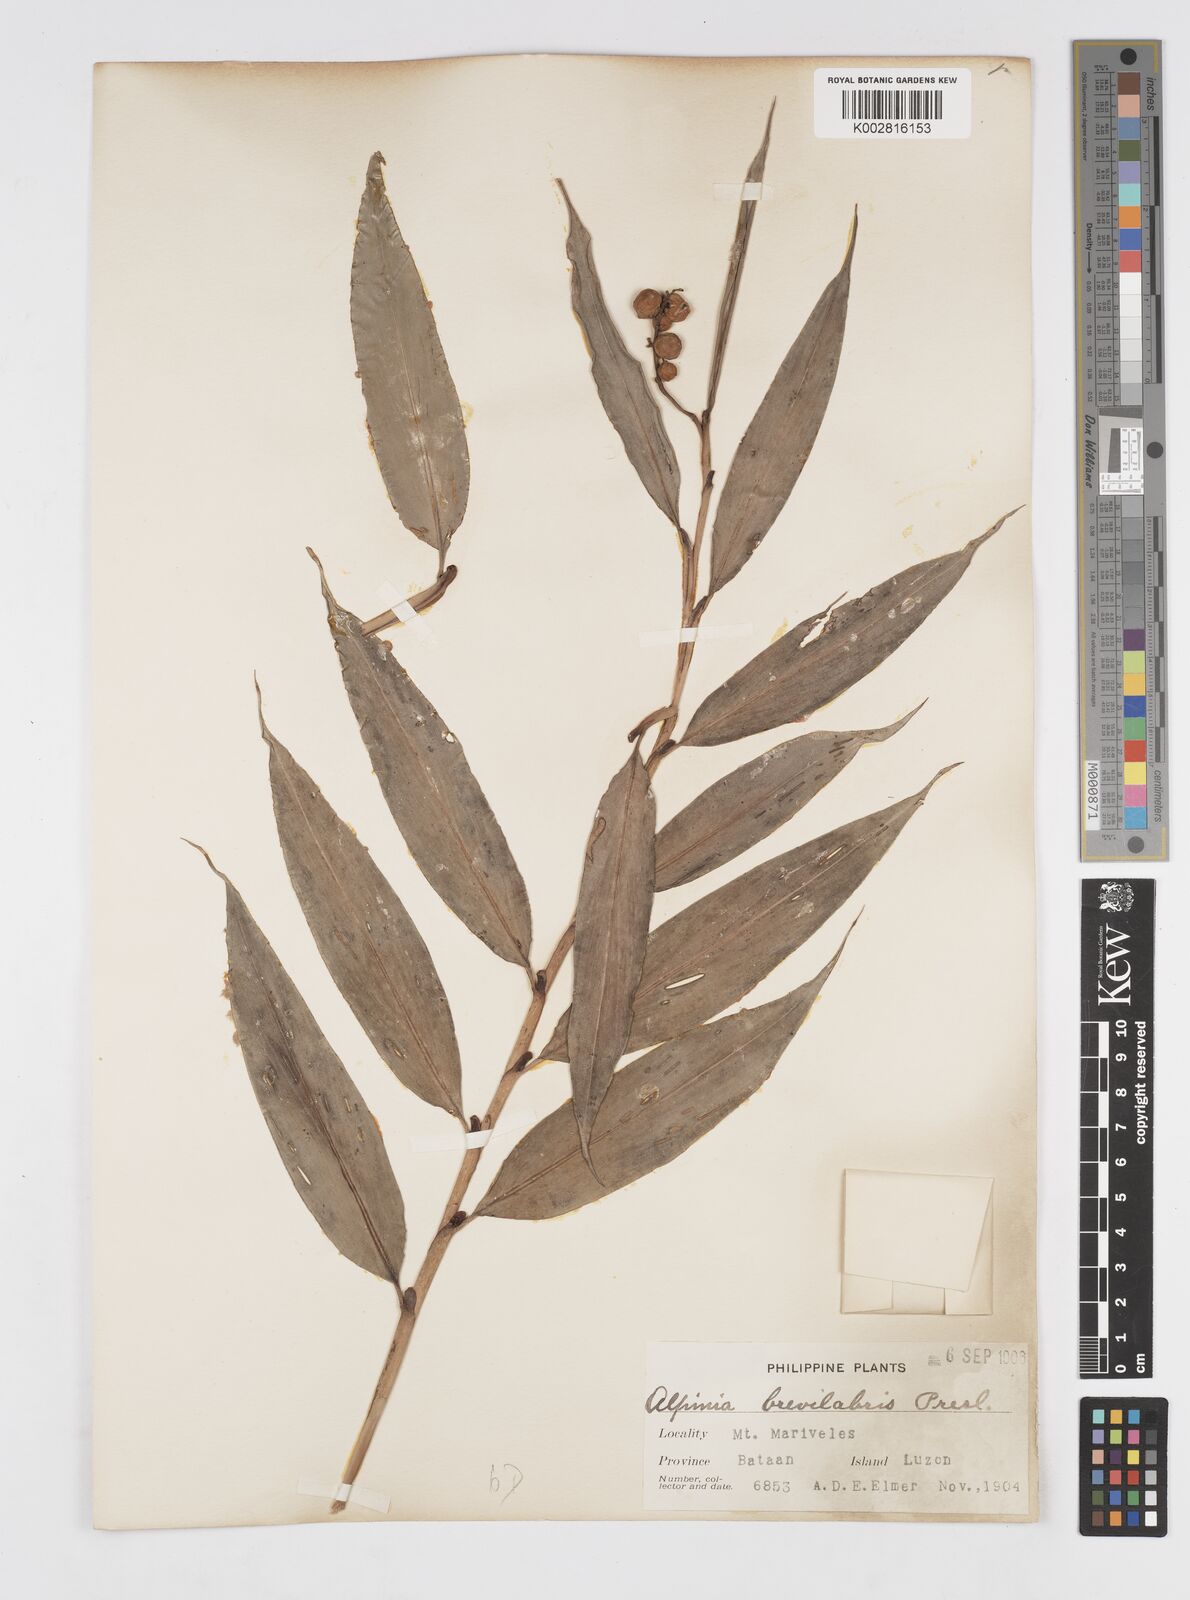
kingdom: Plantae
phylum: Tracheophyta
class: Liliopsida
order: Zingiberales
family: Zingiberaceae
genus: Alpinia
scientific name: Alpinia brevilabris
